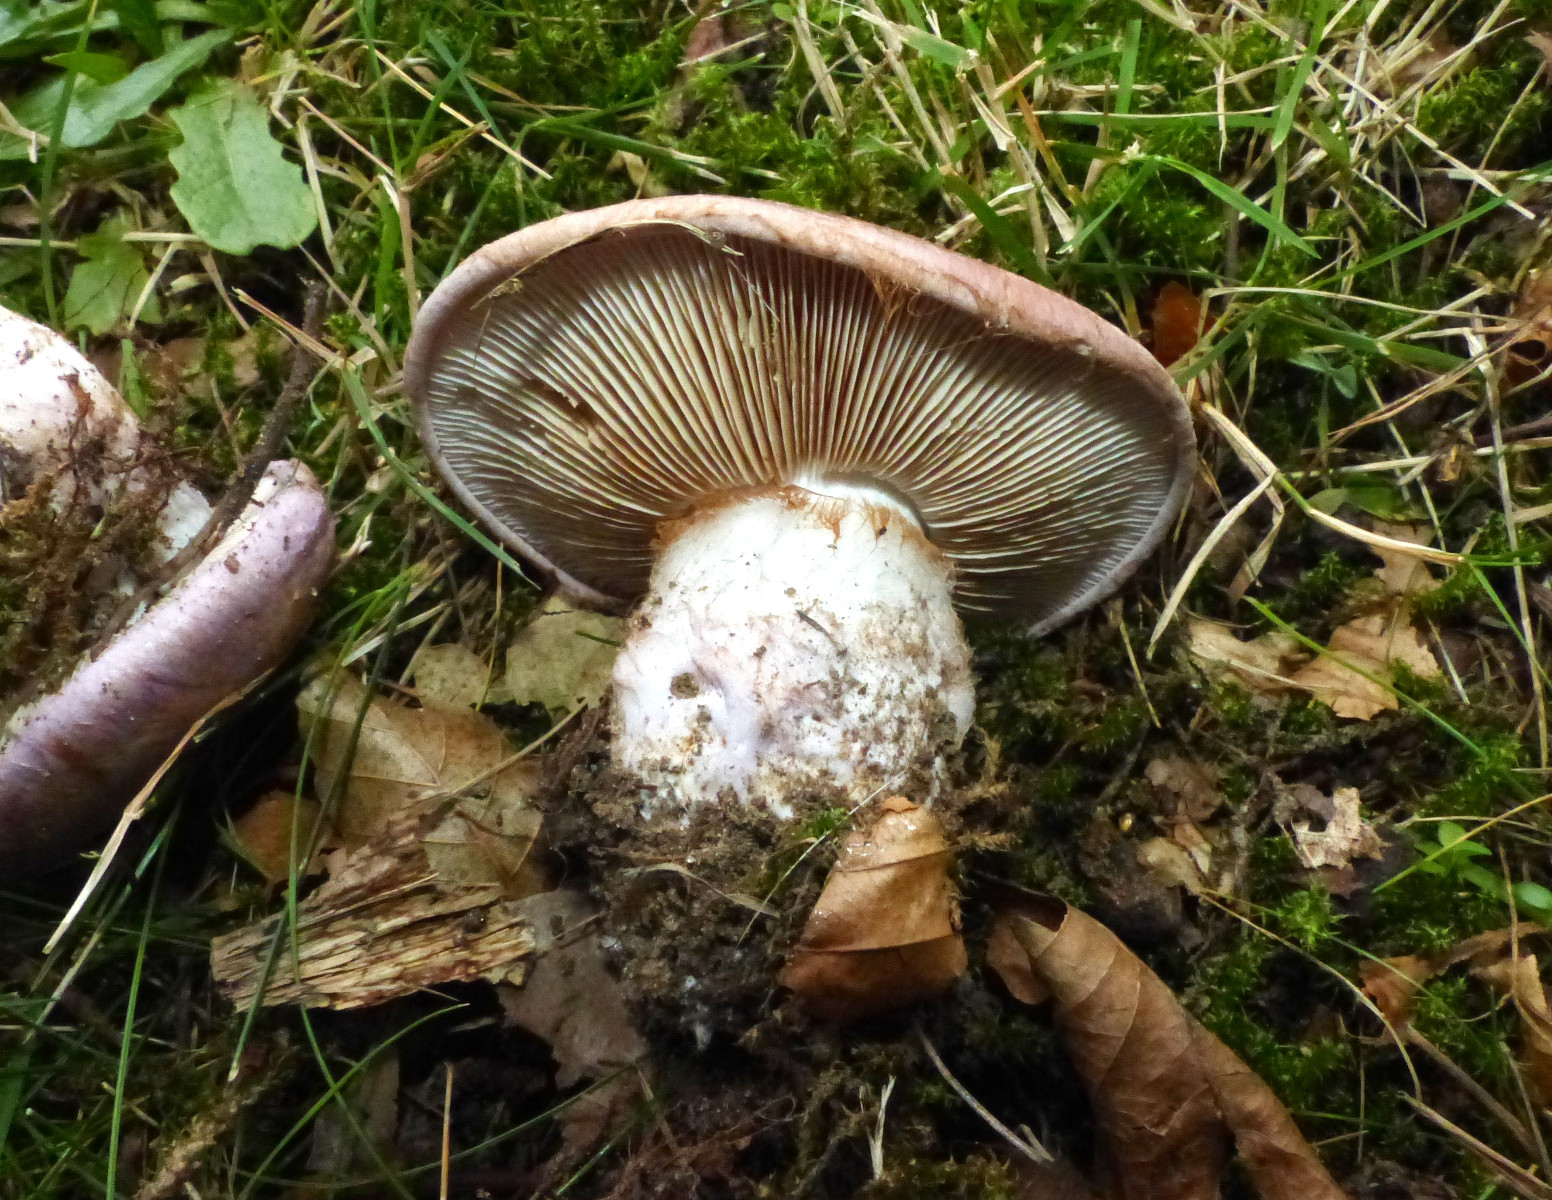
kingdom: Fungi
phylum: Basidiomycota
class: Agaricomycetes
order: Agaricales
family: Cortinariaceae
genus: Phlegmacium
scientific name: Phlegmacium balteatocumatile
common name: violettrådet slørhat
